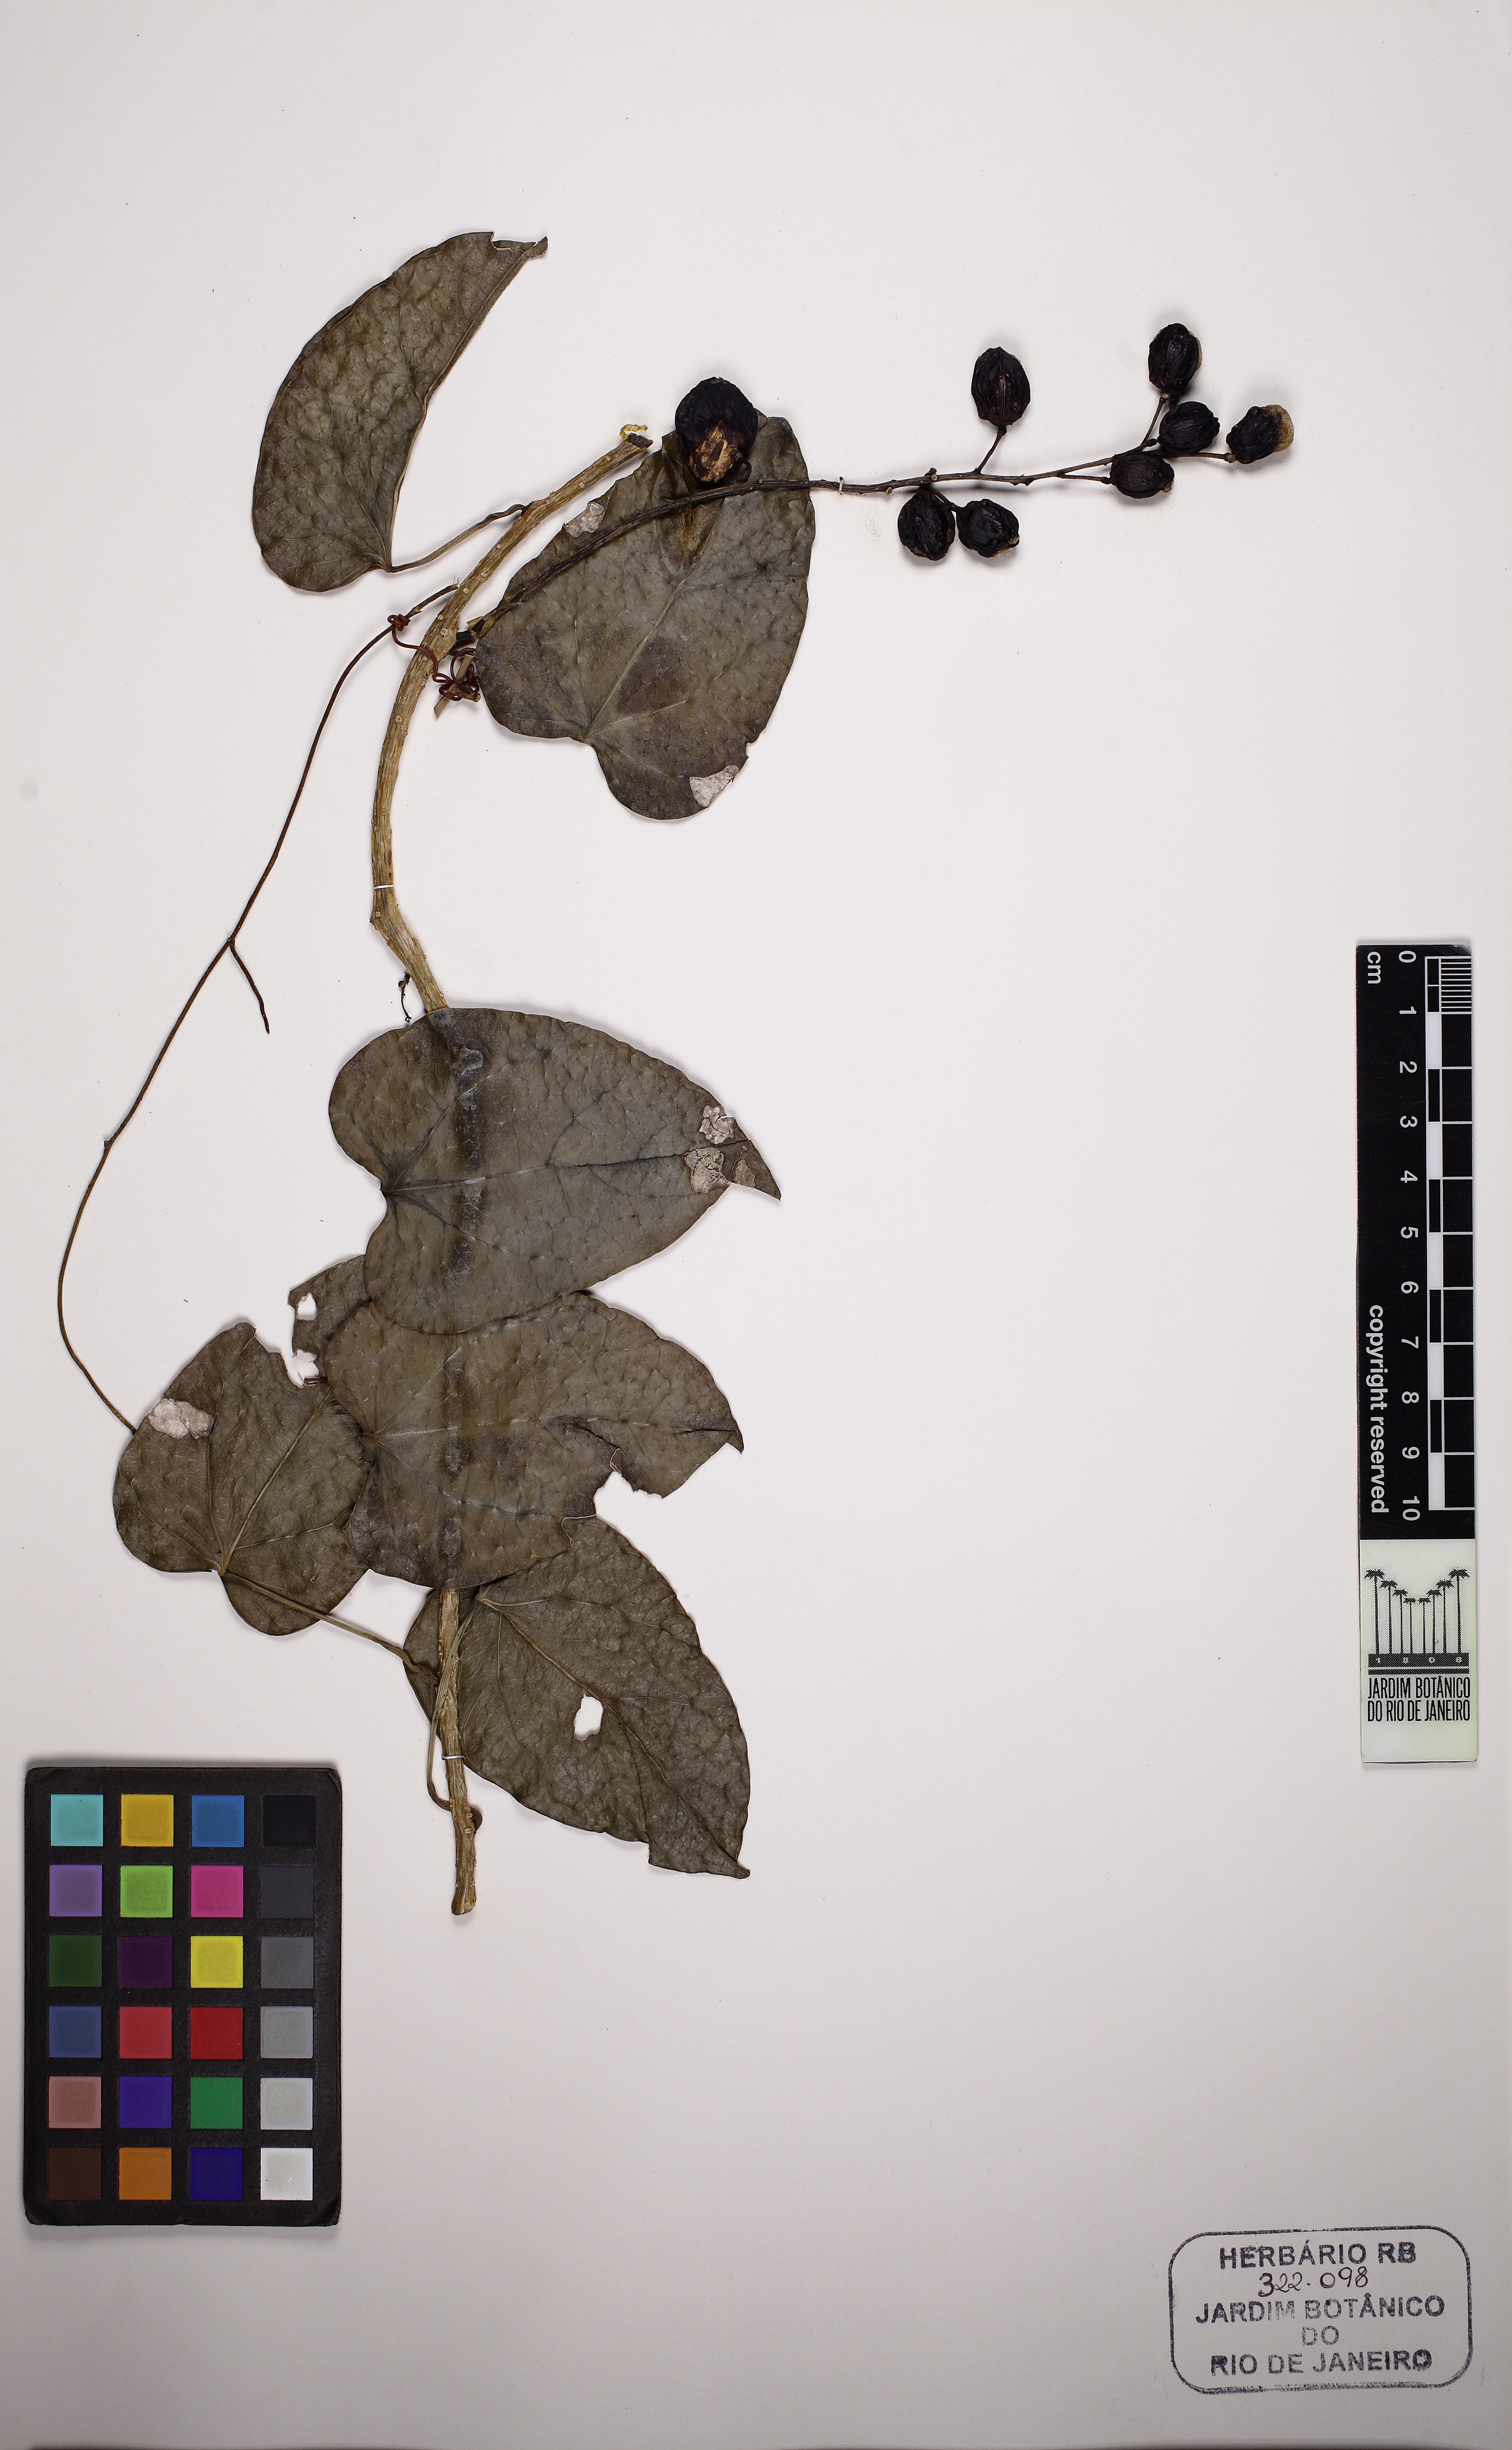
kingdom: Plantae
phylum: Tracheophyta
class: Magnoliopsida
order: Ranunculales
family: Menispermaceae
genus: Odontocarya
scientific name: Odontocarya
